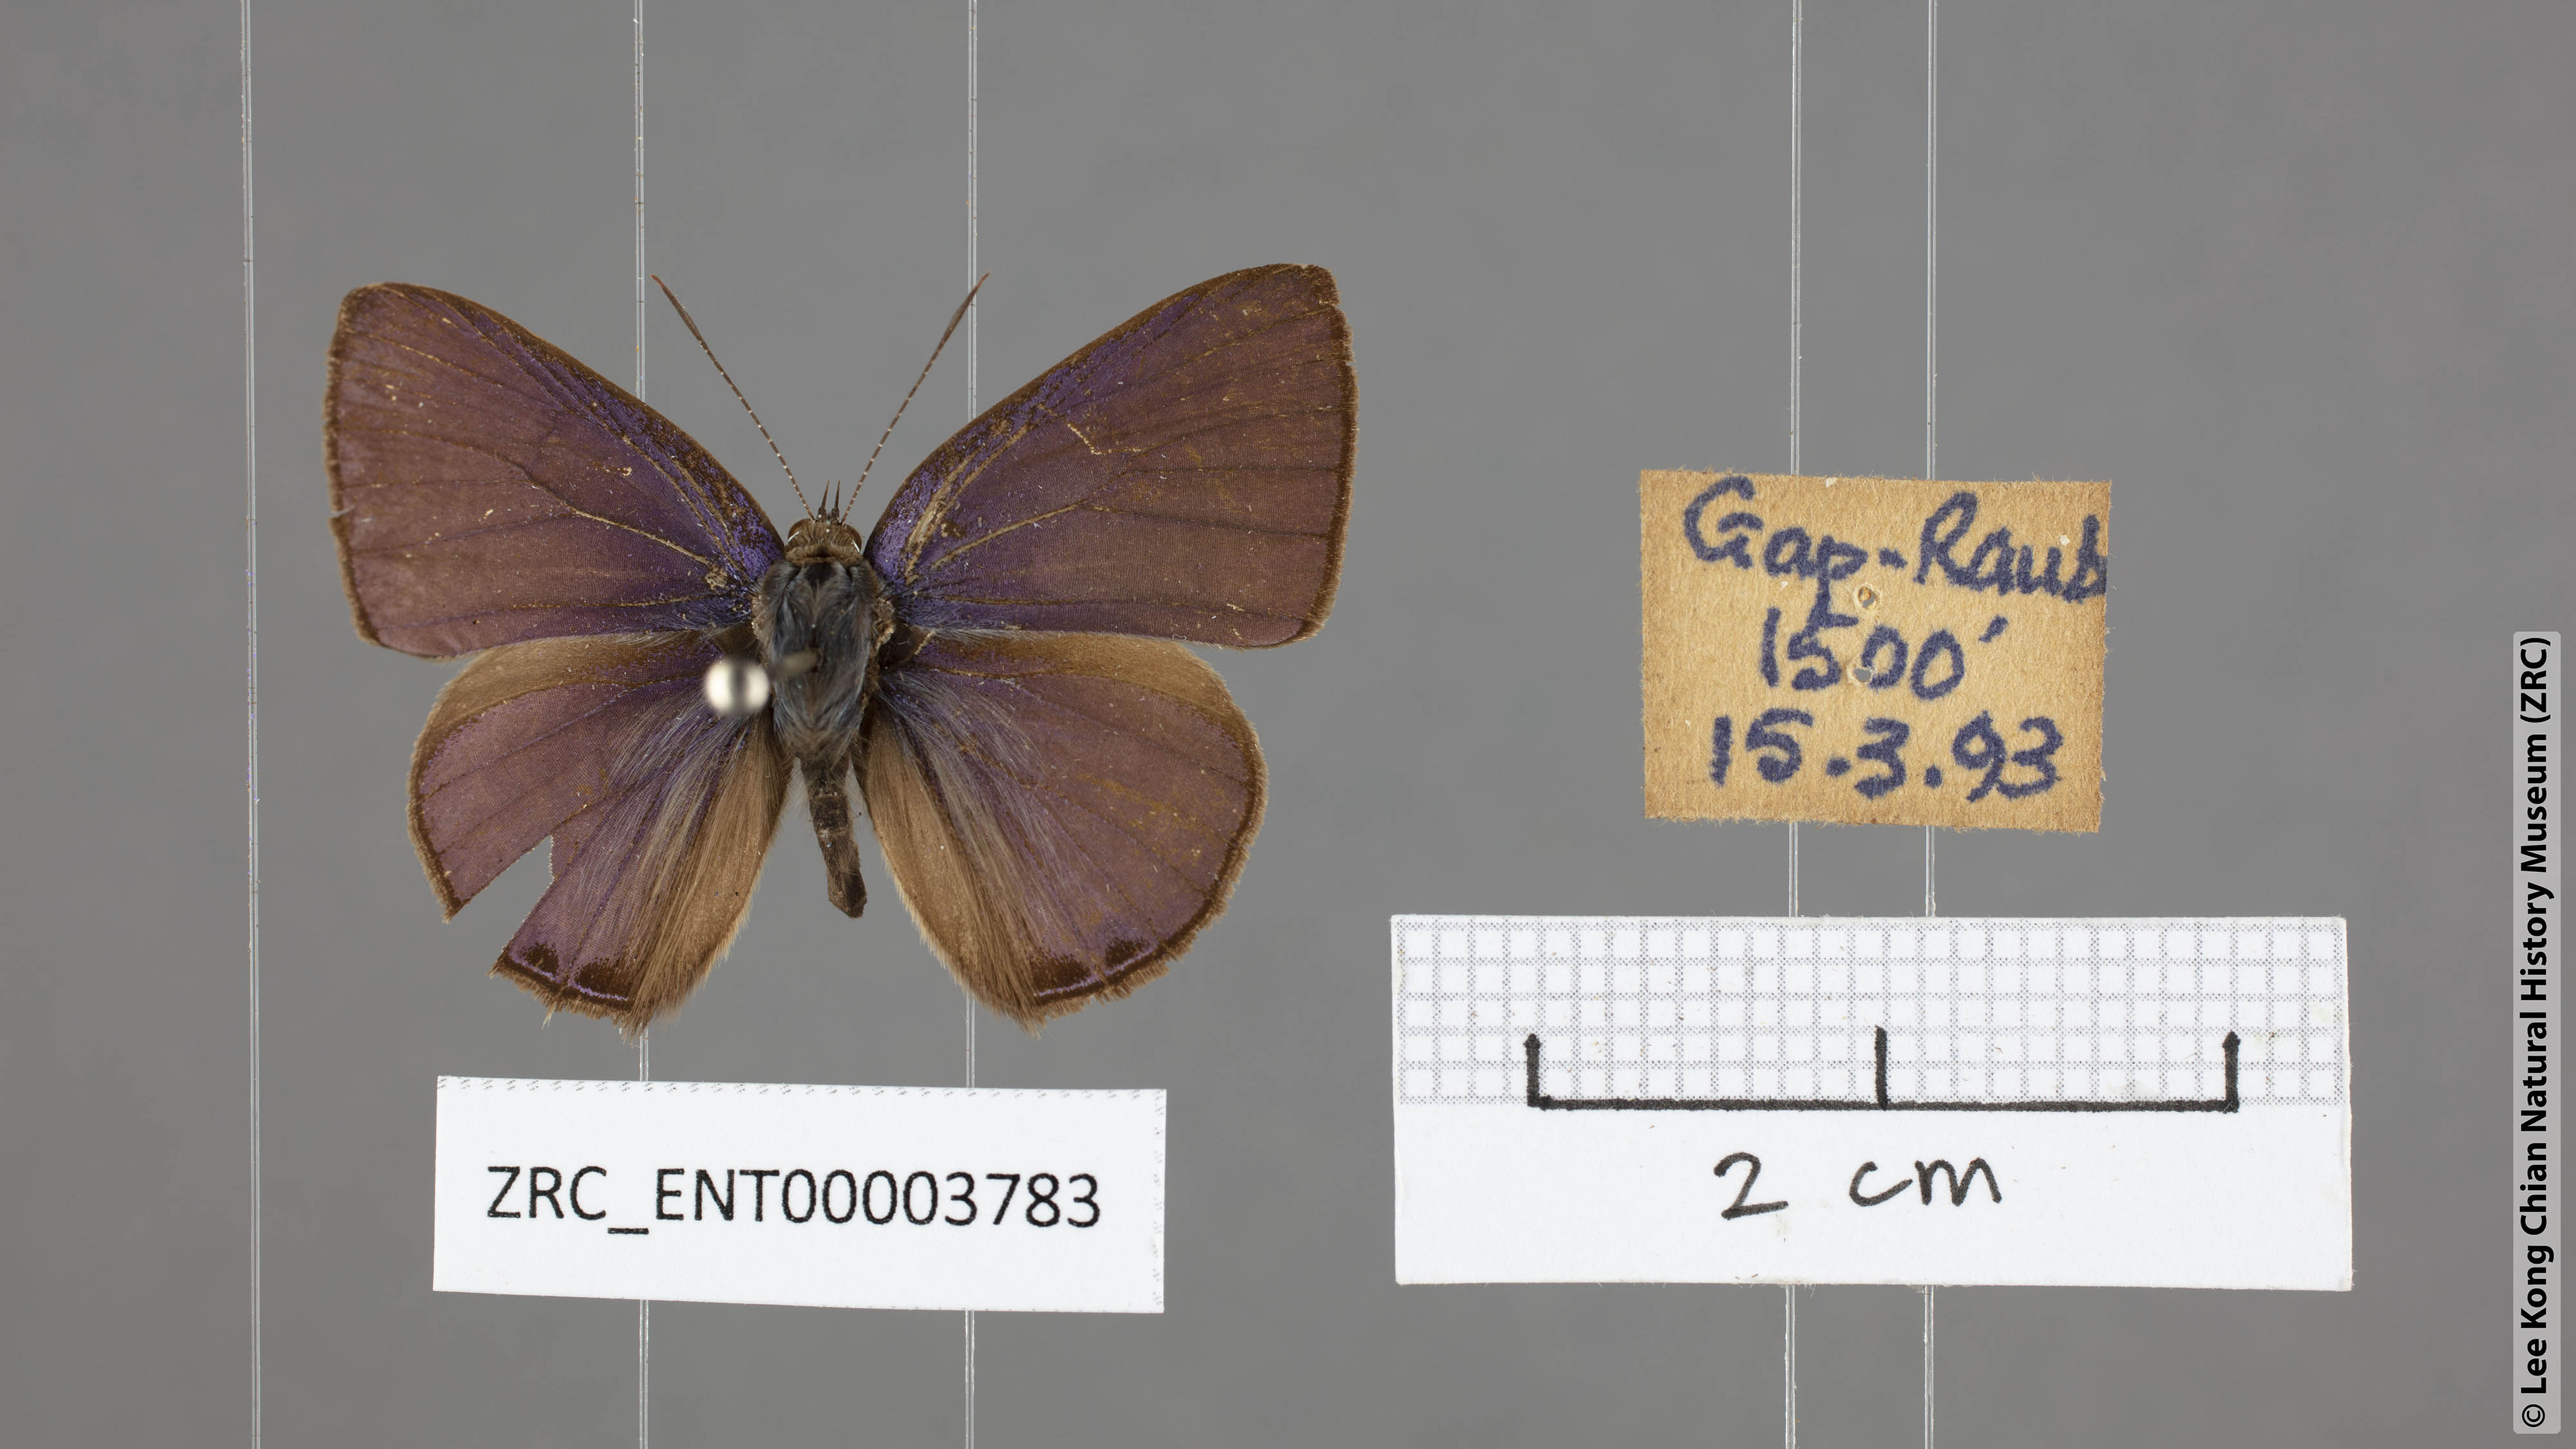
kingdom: Animalia
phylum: Arthropoda
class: Insecta
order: Lepidoptera
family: Lycaenidae
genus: Anthene
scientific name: Anthene emolus
